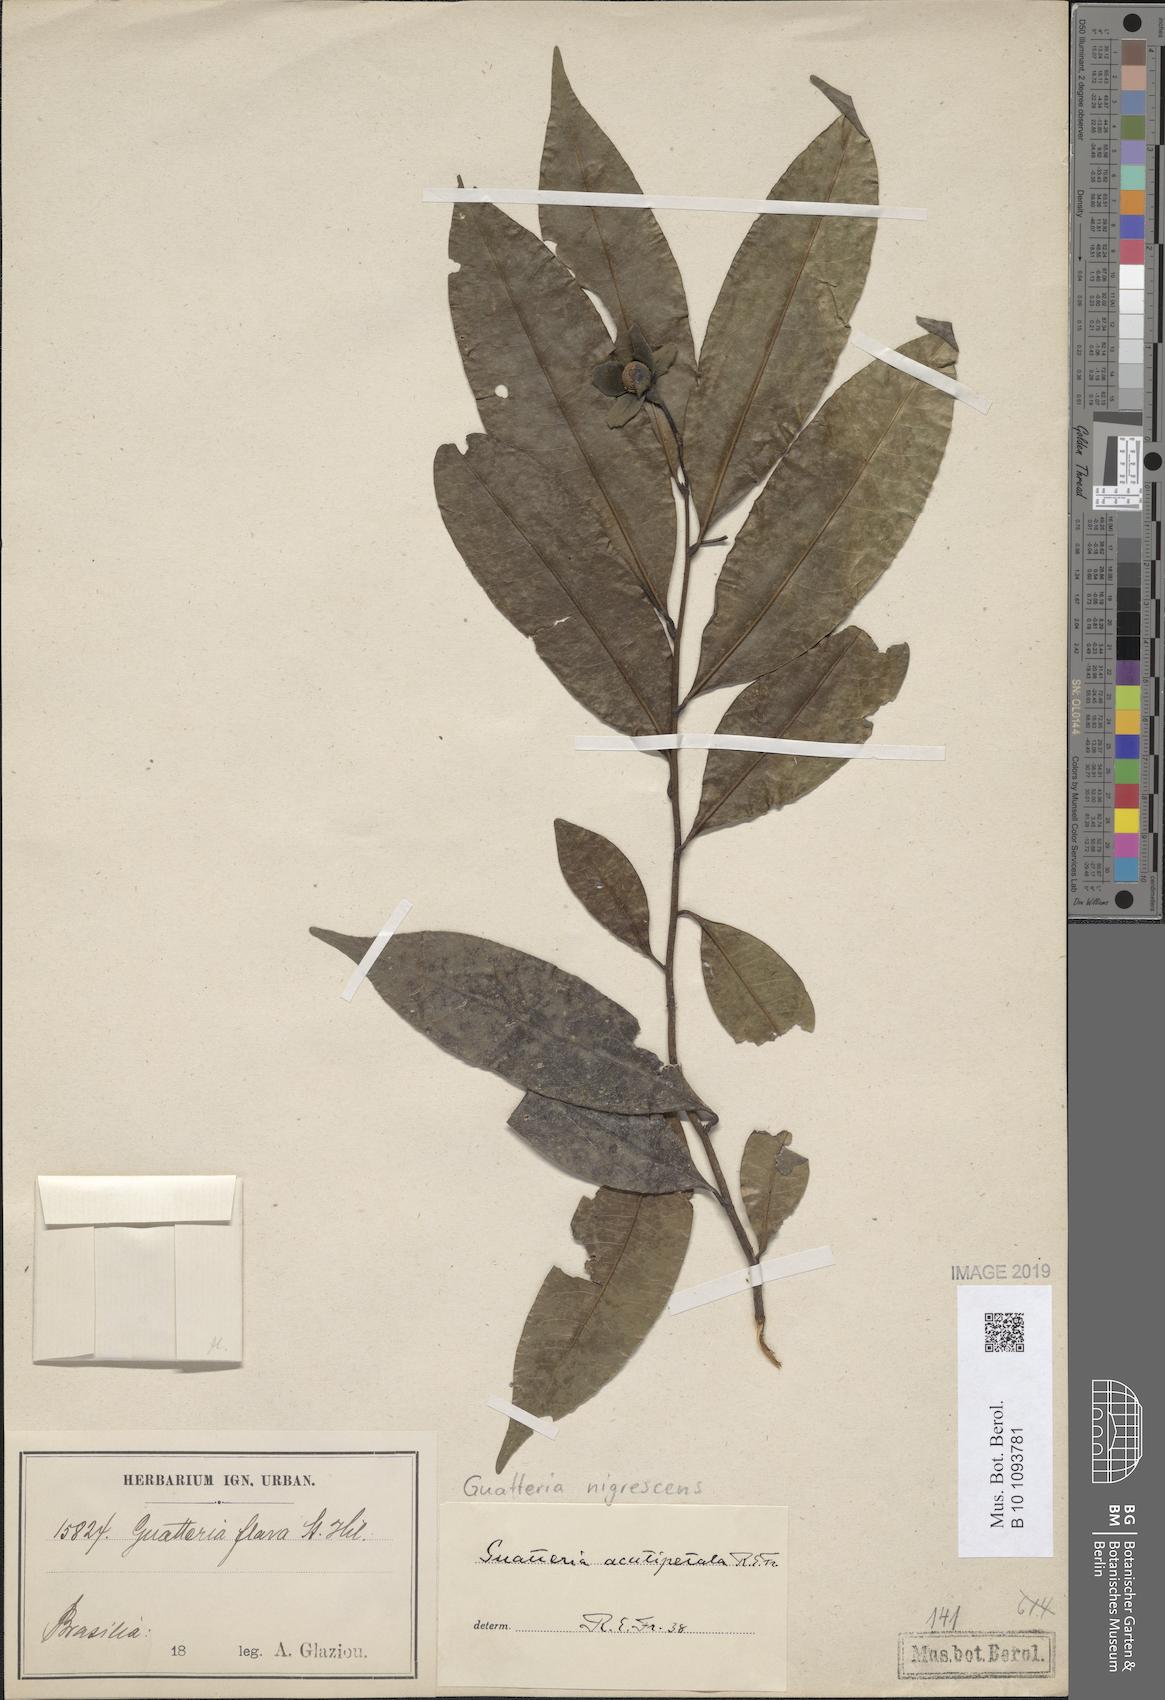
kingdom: Plantae
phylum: Tracheophyta
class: Magnoliopsida
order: Magnoliales
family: Annonaceae
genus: Guatteria
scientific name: Guatteria australis
